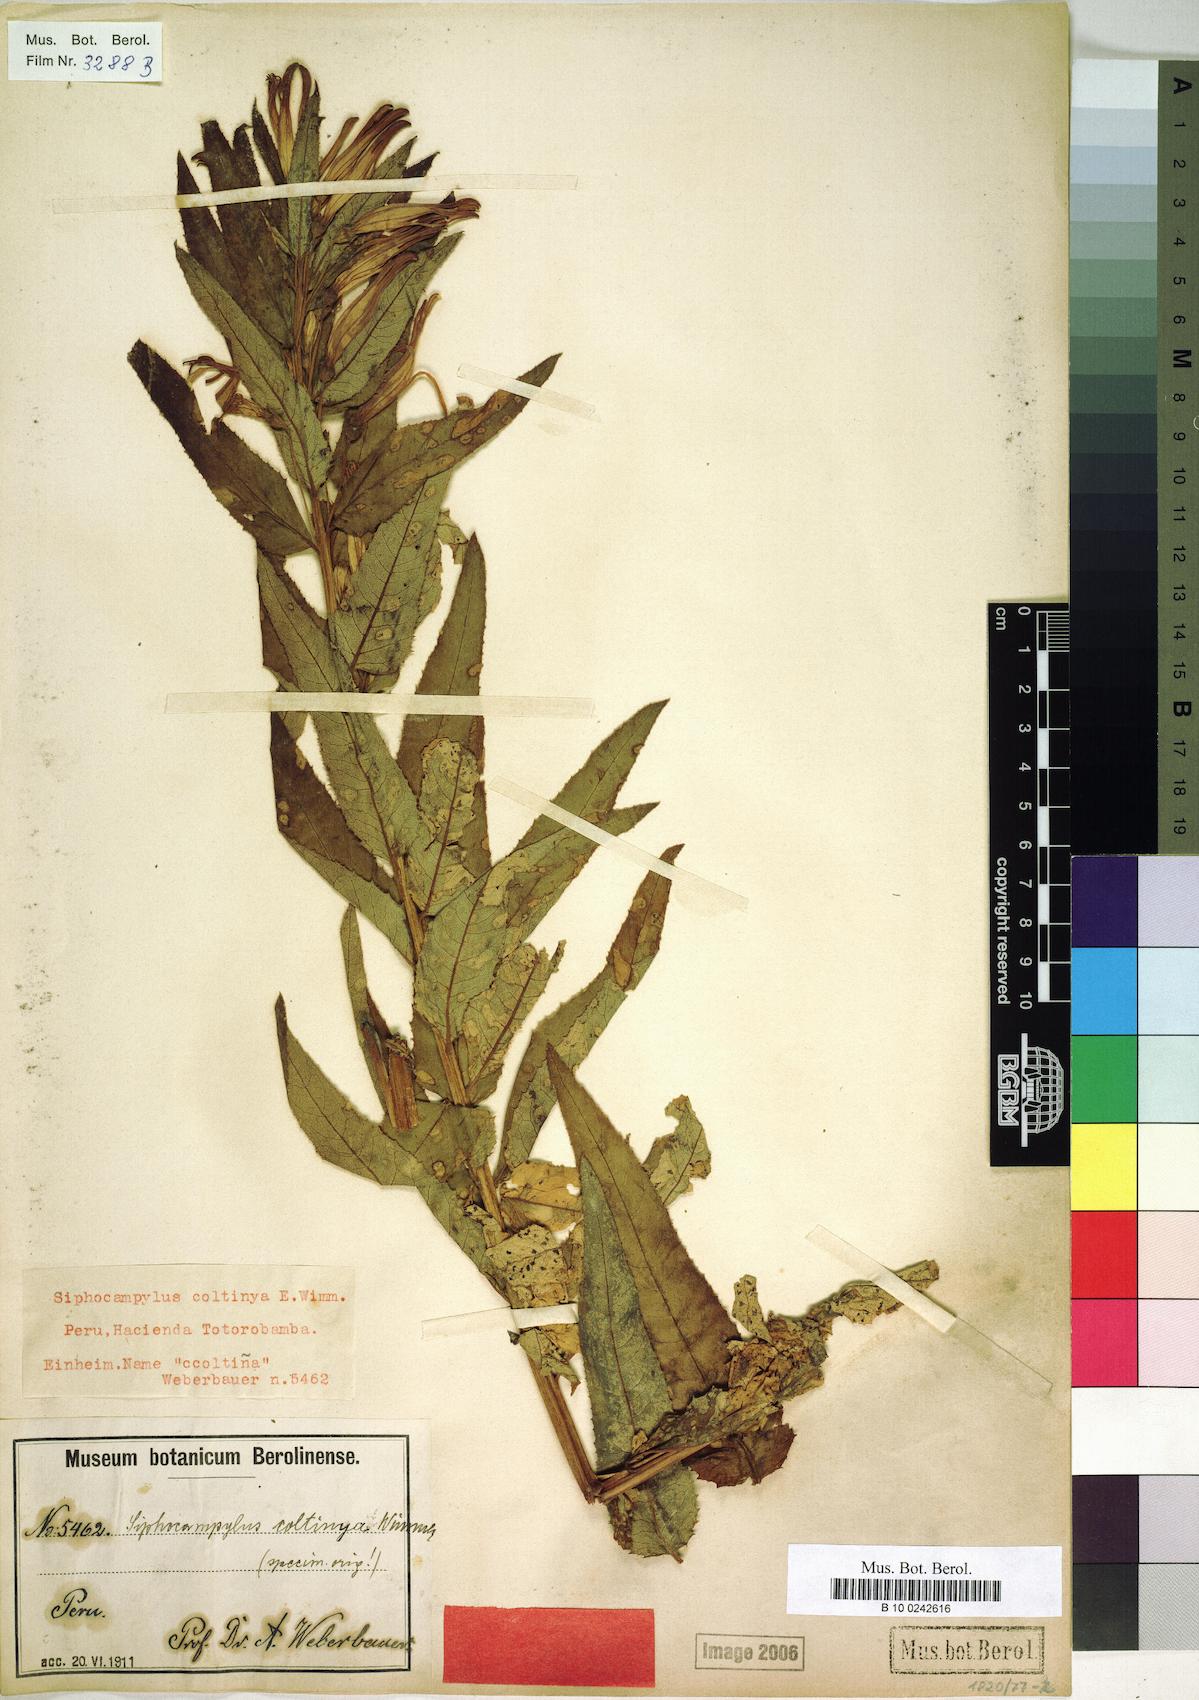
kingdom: Plantae
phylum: Tracheophyta
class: Magnoliopsida
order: Asterales
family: Campanulaceae
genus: Siphocampylus
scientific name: Siphocampylus coltinya
